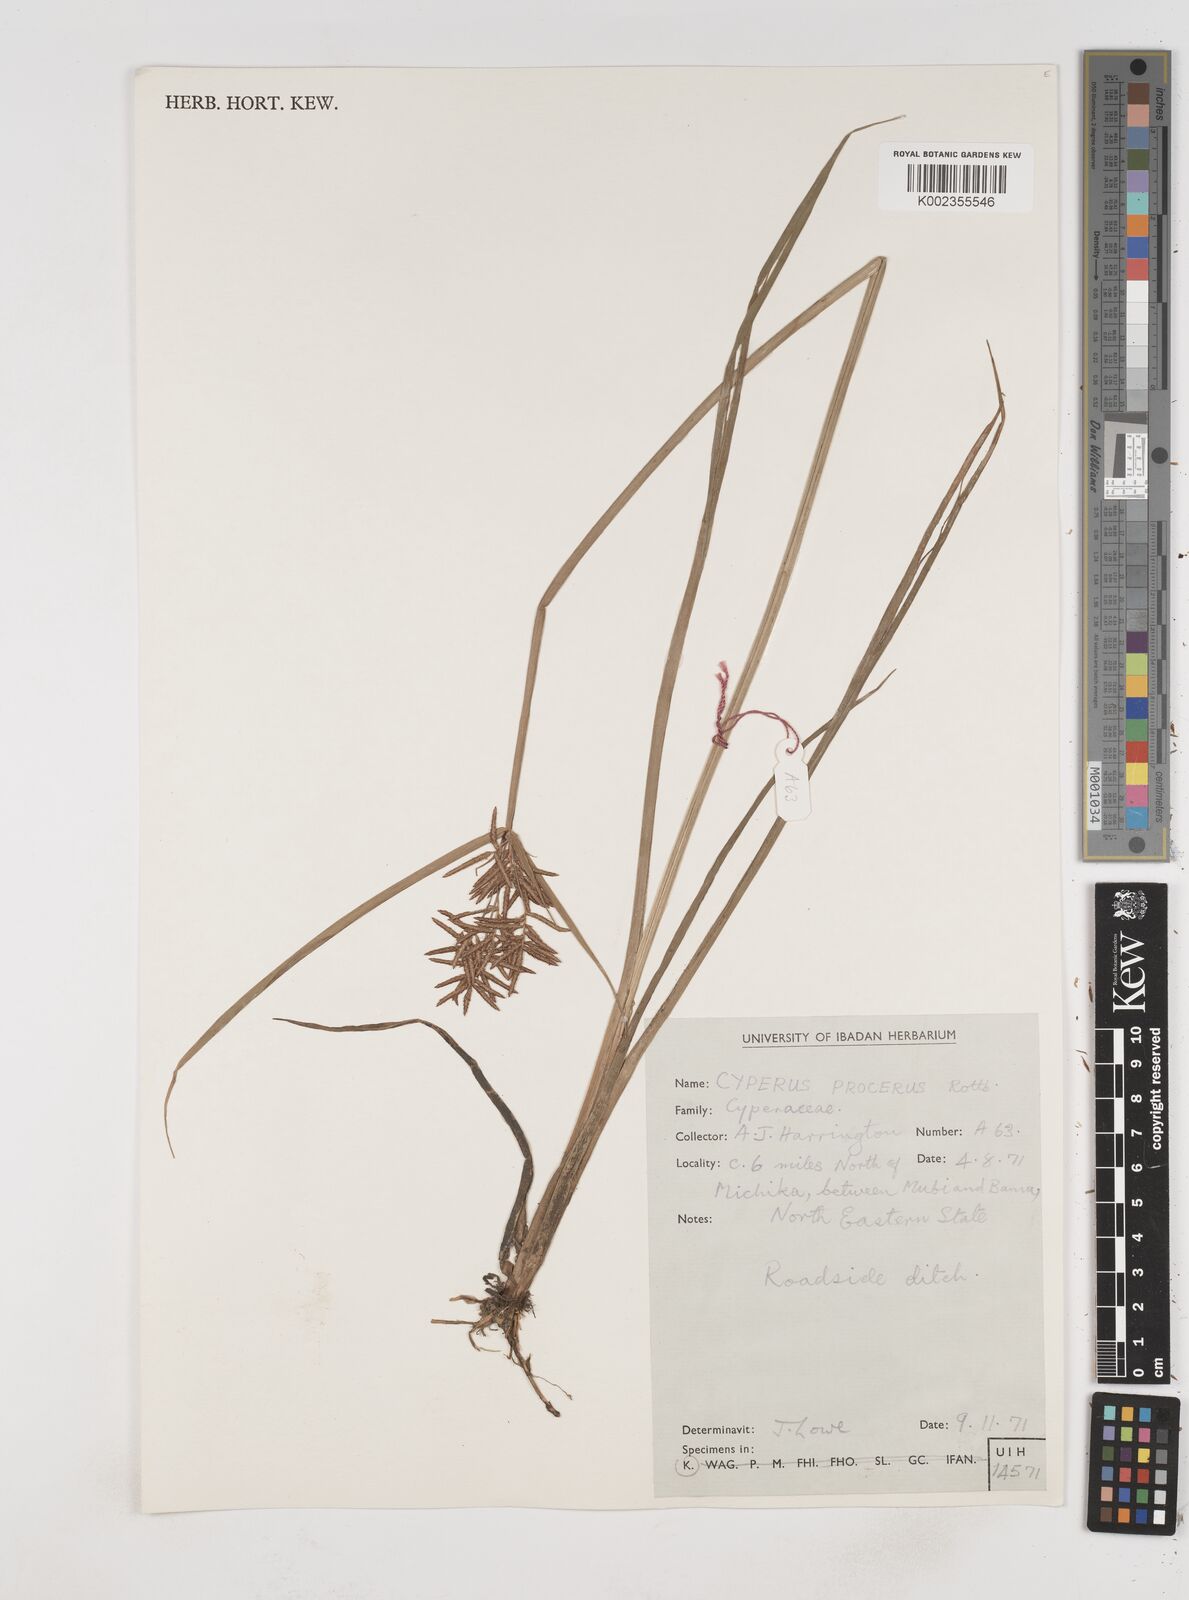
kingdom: Plantae
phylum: Tracheophyta
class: Liliopsida
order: Poales
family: Cyperaceae
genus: Cyperus
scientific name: Cyperus procerus
